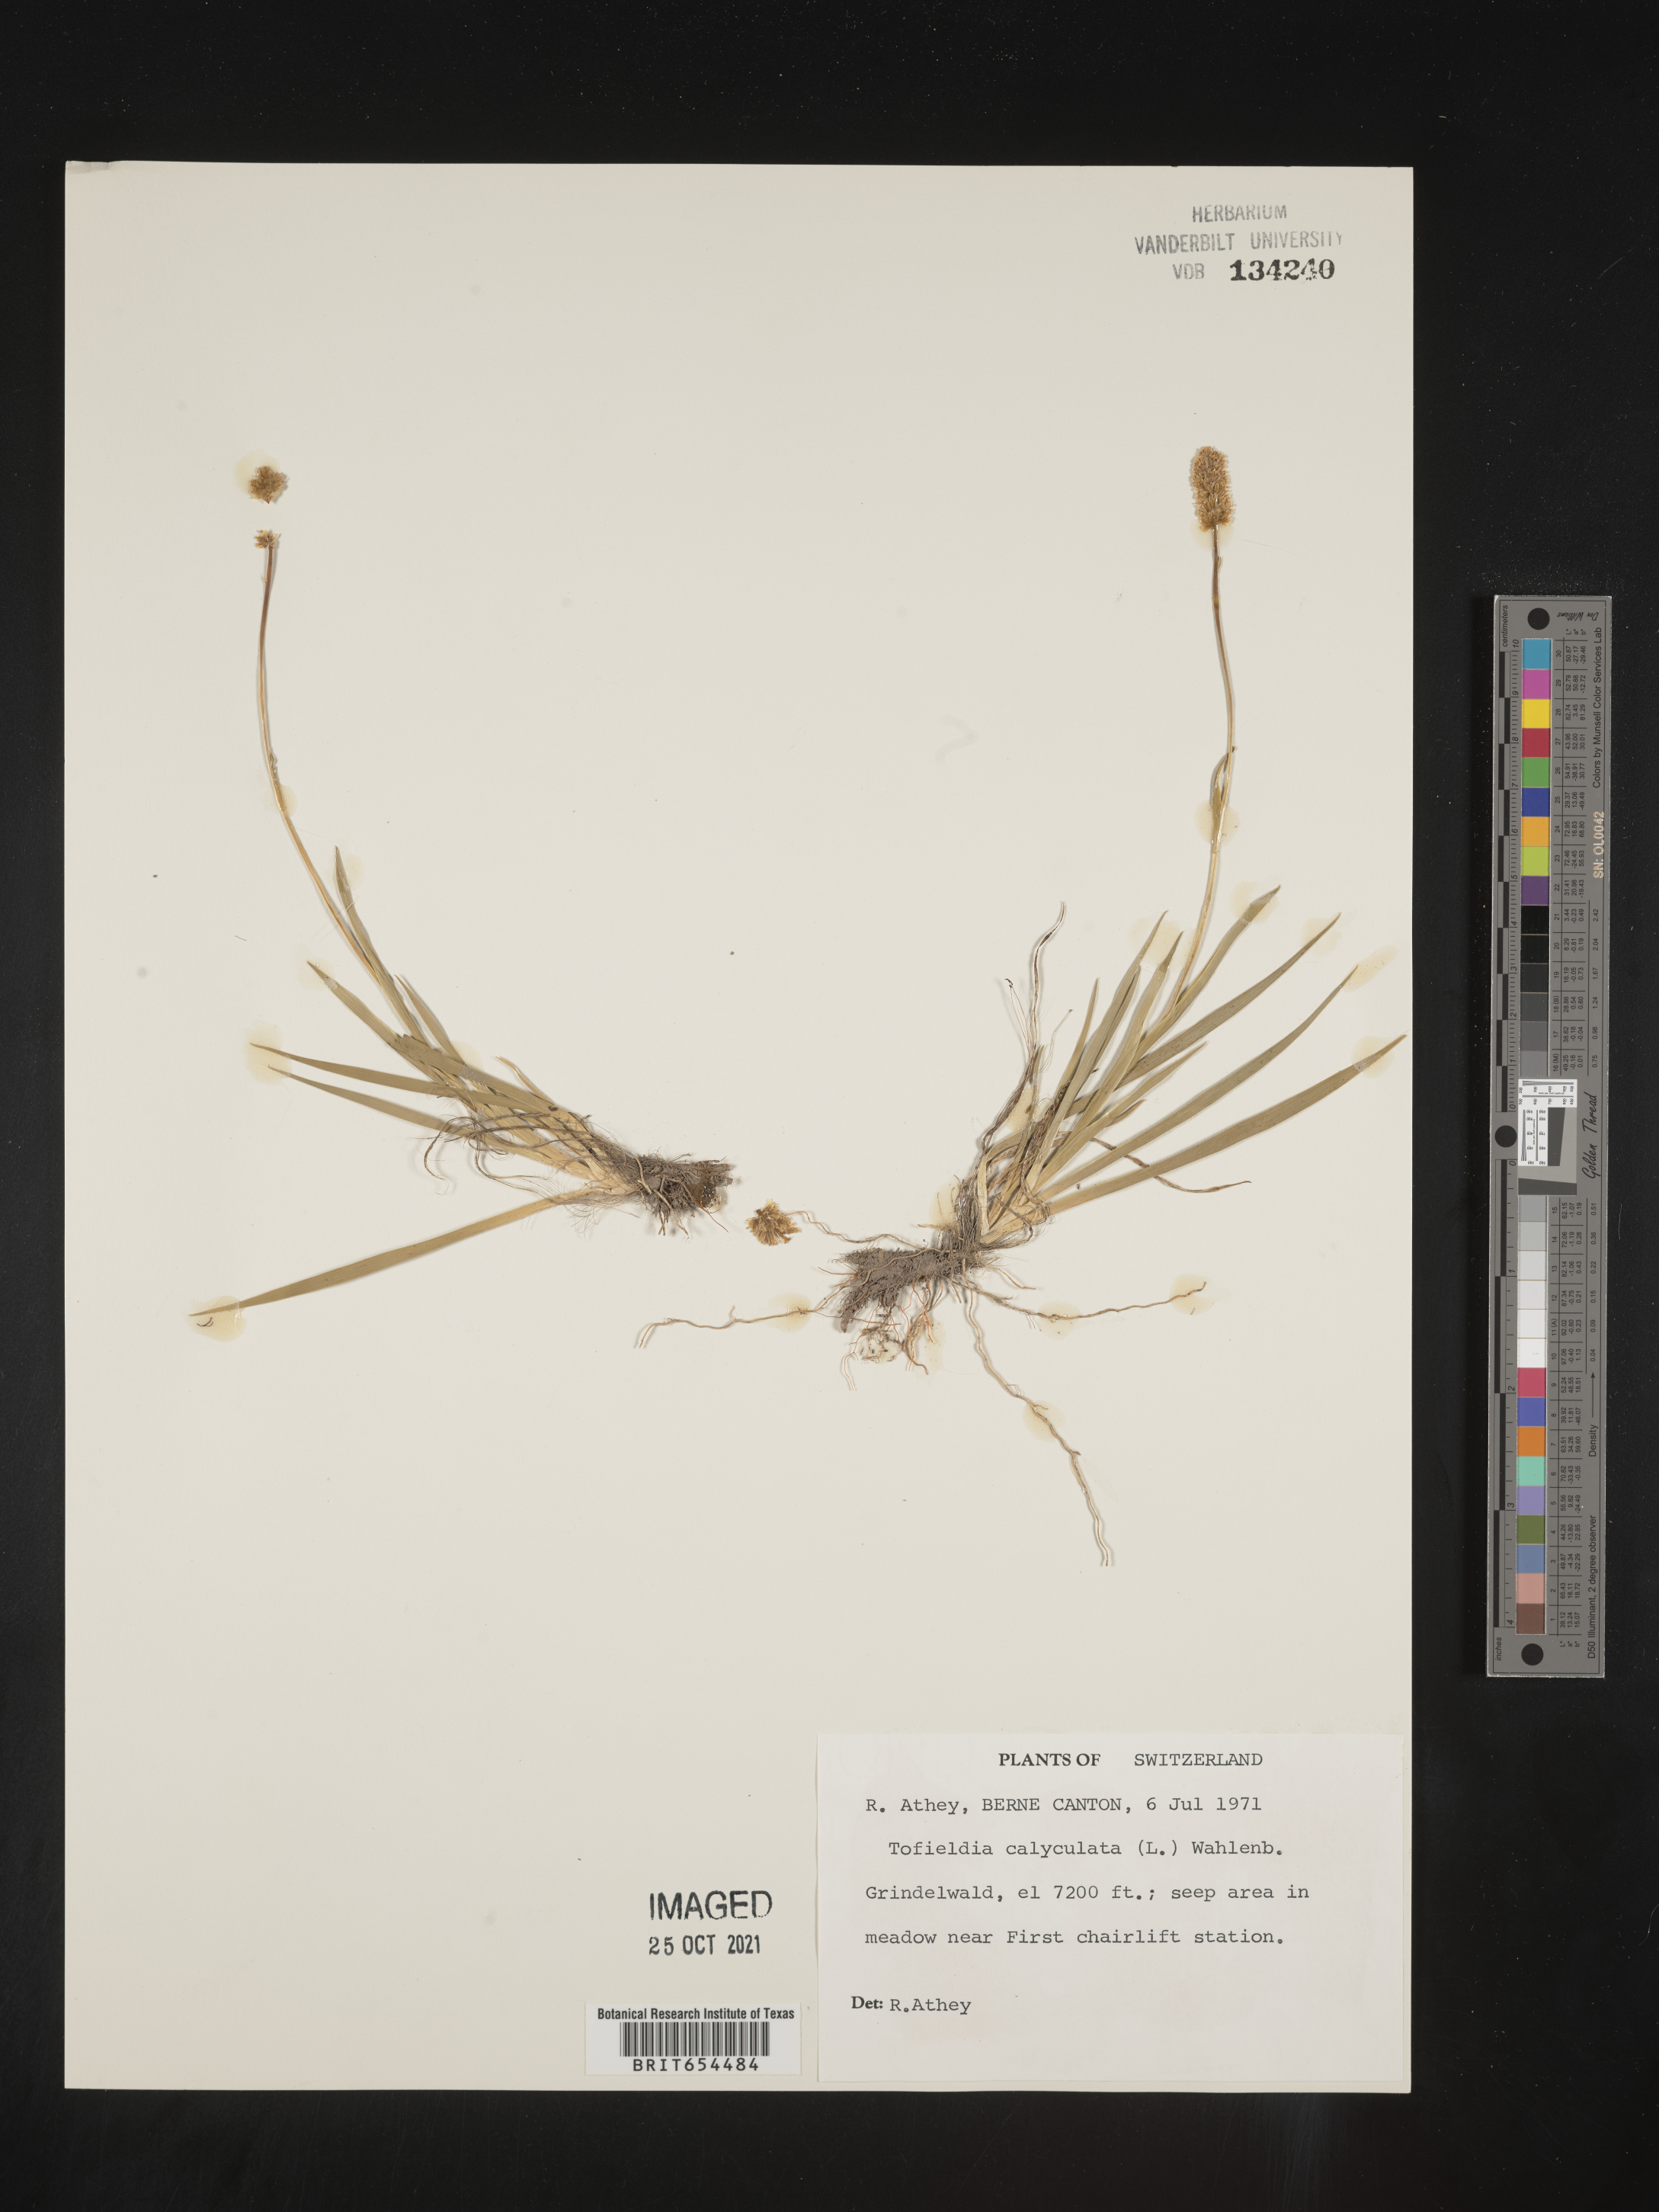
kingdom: Plantae
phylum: Tracheophyta
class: Liliopsida
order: Alismatales
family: Tofieldiaceae
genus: Tofieldia
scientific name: Tofieldia
